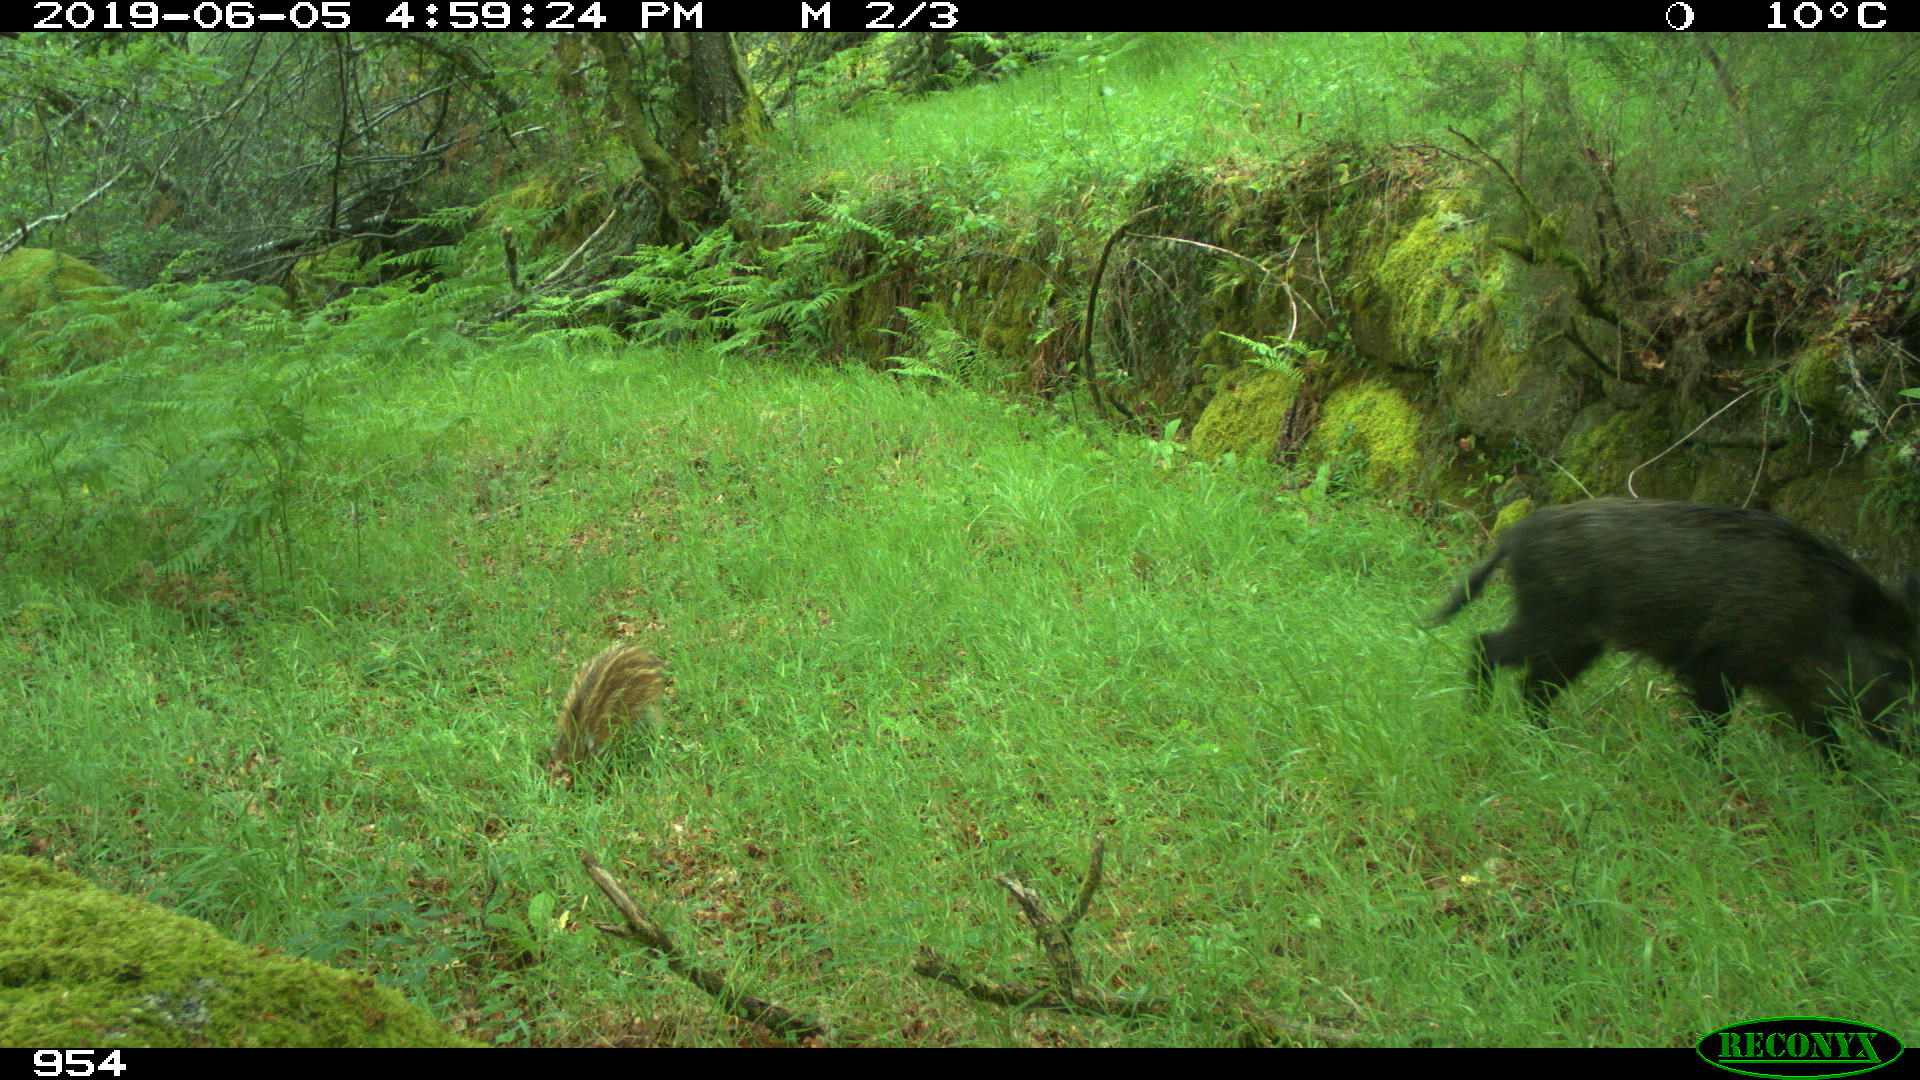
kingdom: Animalia
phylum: Chordata
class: Mammalia
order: Artiodactyla
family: Suidae
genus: Sus
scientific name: Sus scrofa
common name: Wild boar
